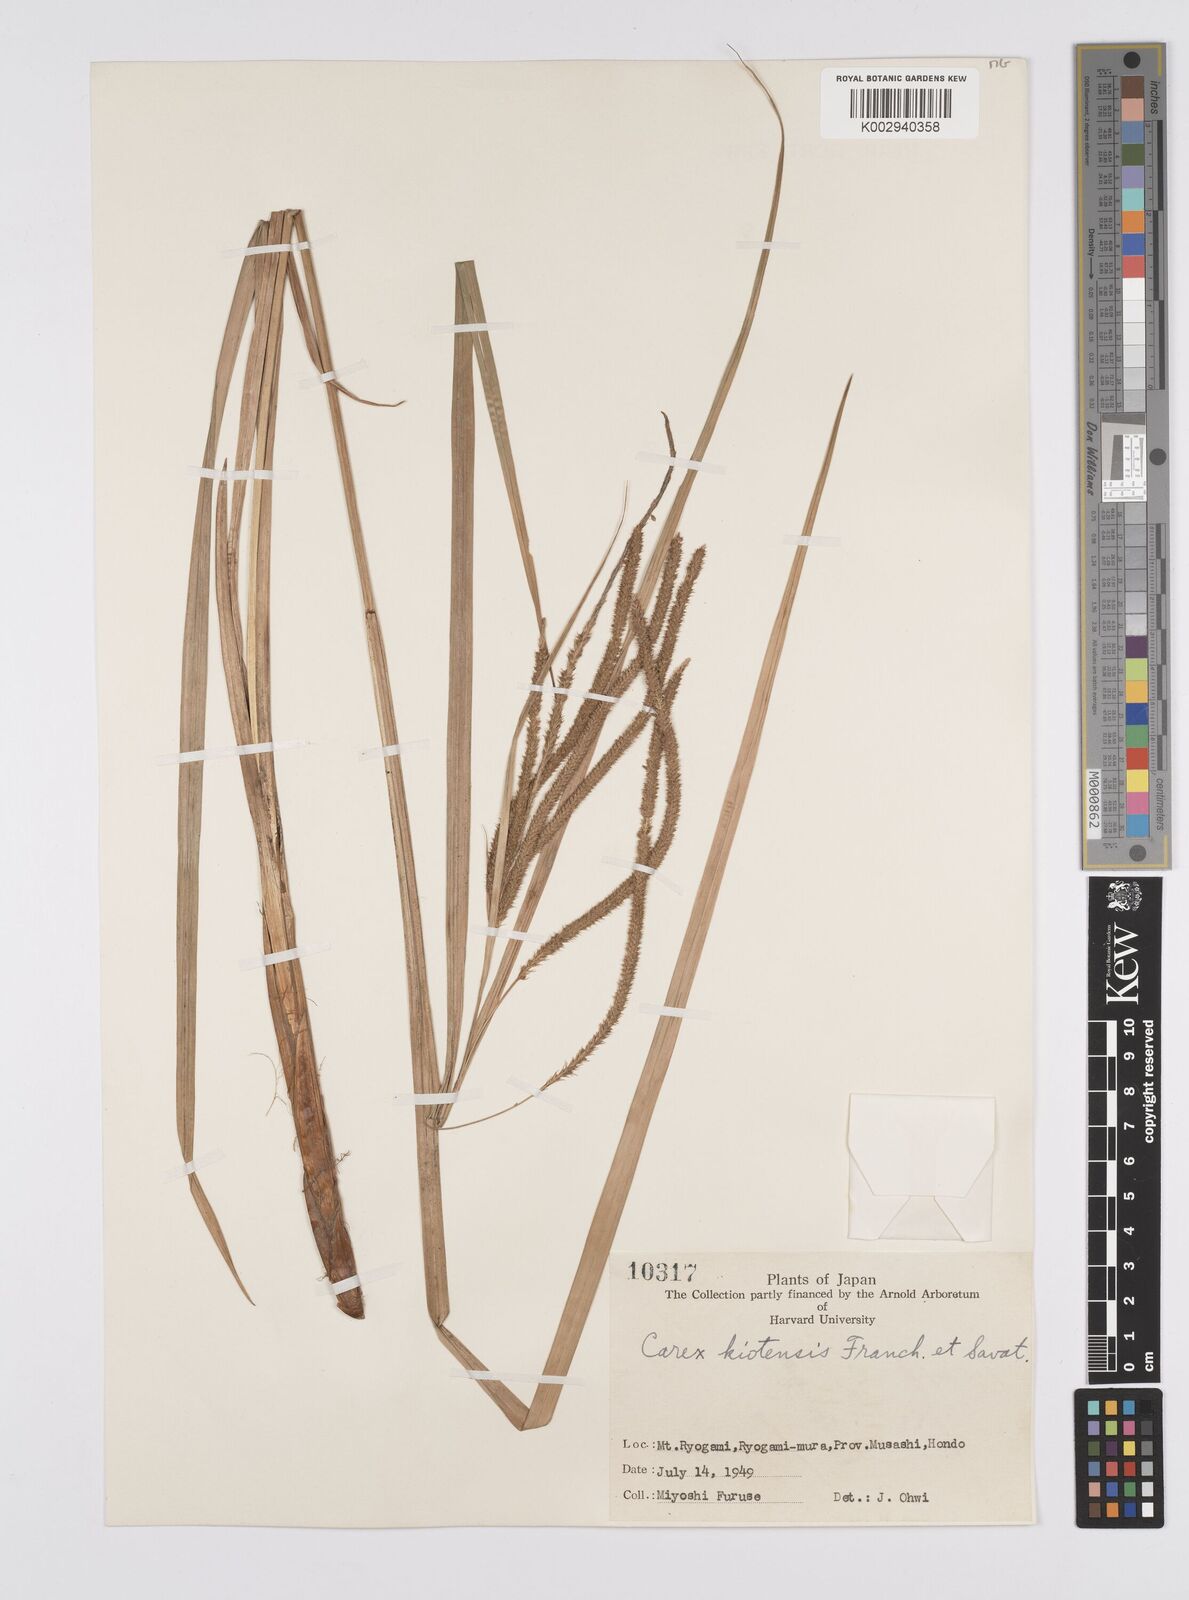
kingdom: Plantae
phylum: Tracheophyta
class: Liliopsida
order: Poales
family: Cyperaceae
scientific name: Cyperaceae
